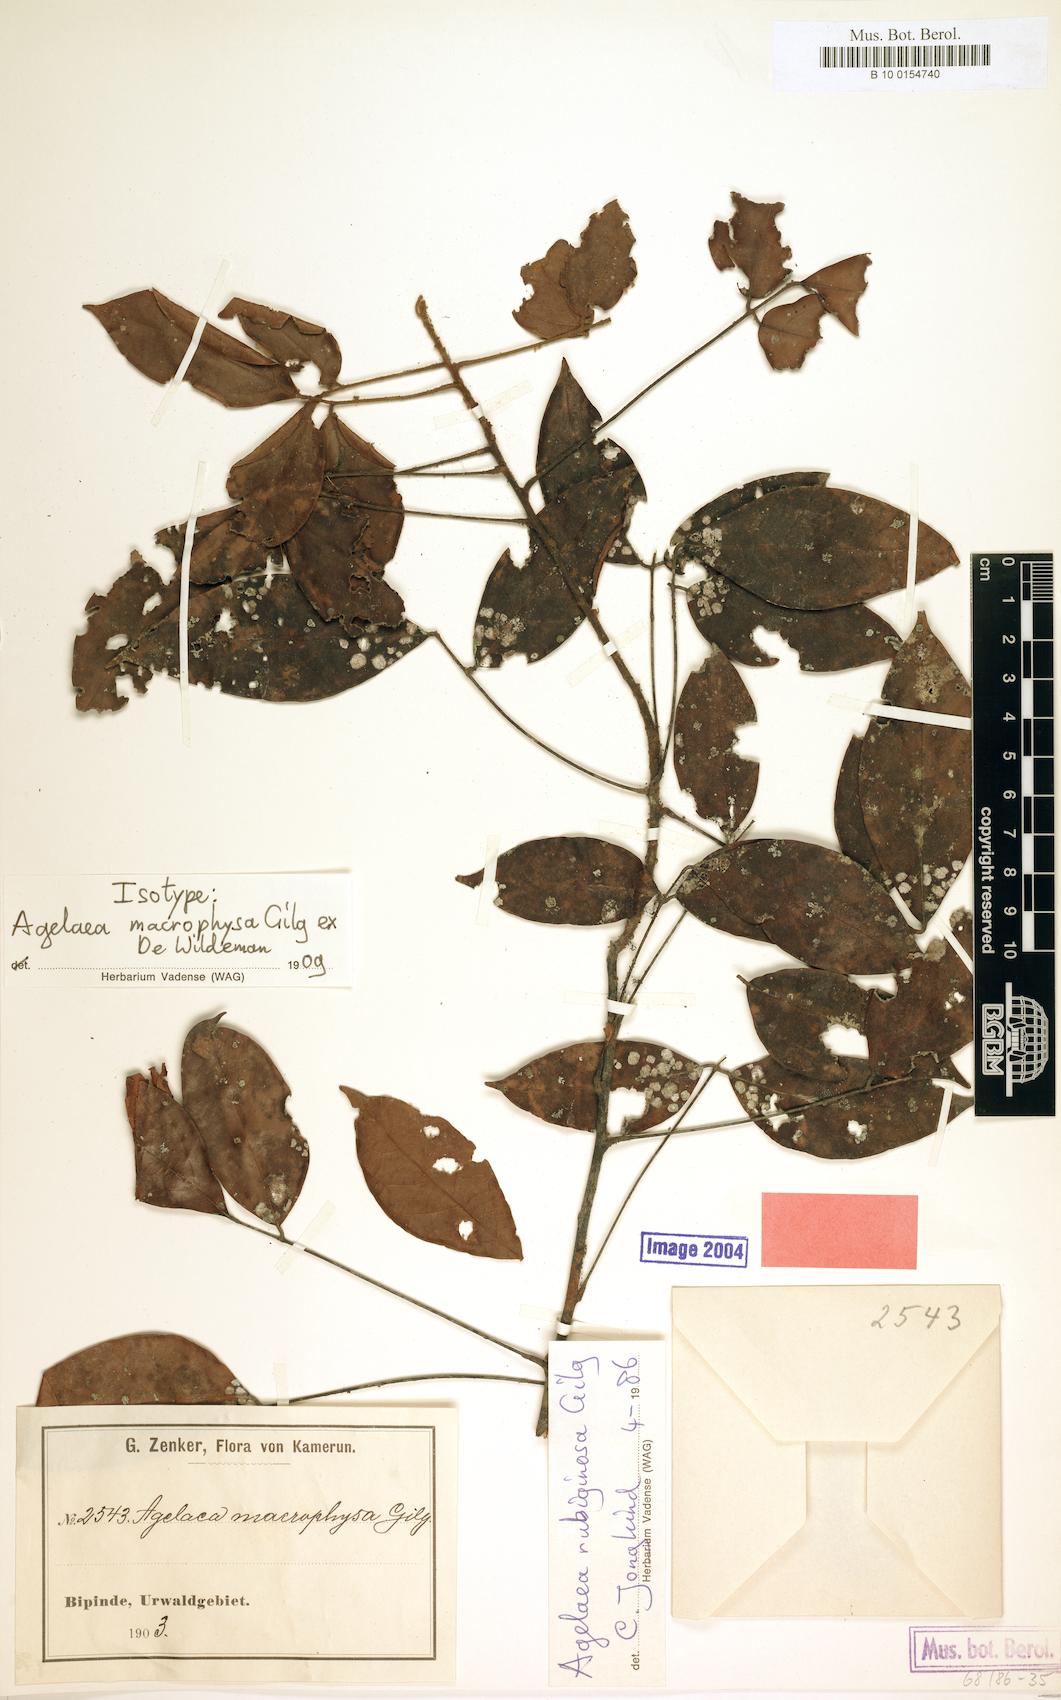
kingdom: Plantae
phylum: Tracheophyta
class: Magnoliopsida
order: Oxalidales
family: Connaraceae
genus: Agelaea
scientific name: Agelaea rubiginosa
